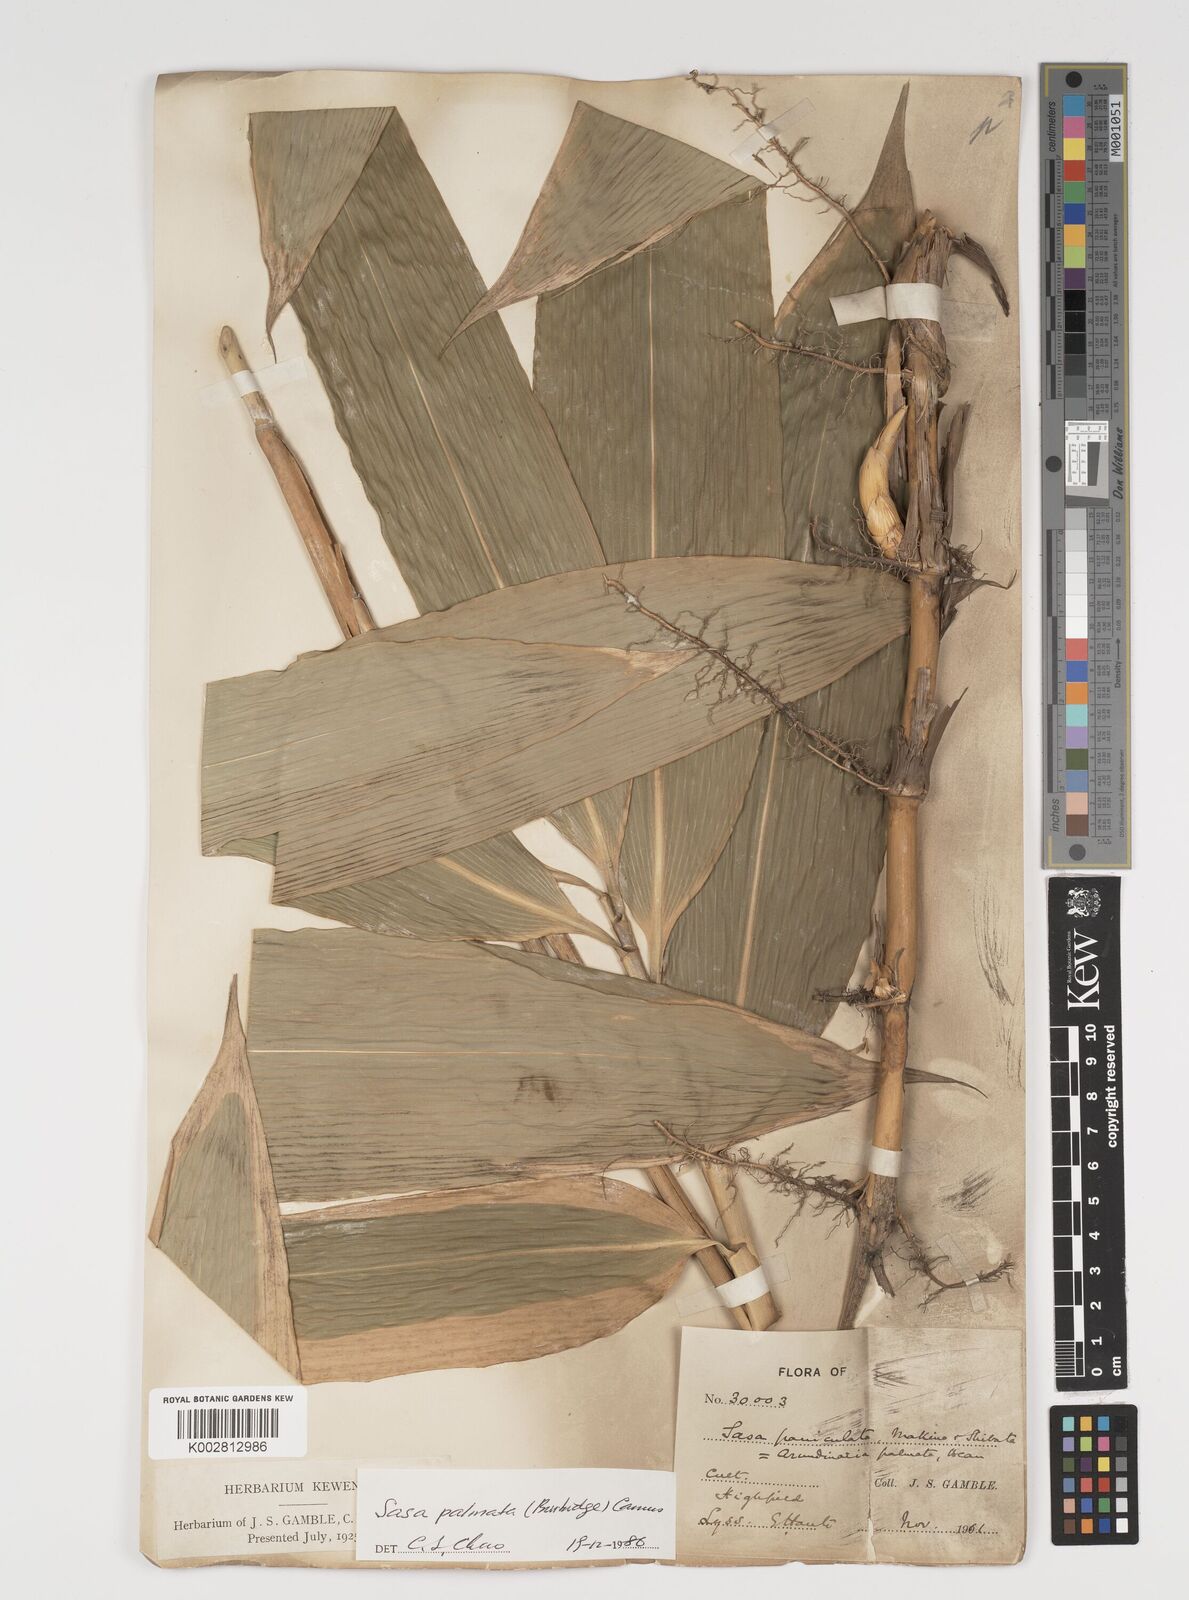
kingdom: Plantae
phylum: Tracheophyta
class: Liliopsida
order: Poales
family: Poaceae
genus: Sasa
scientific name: Sasa palmata
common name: Broad-leaved bamboo
